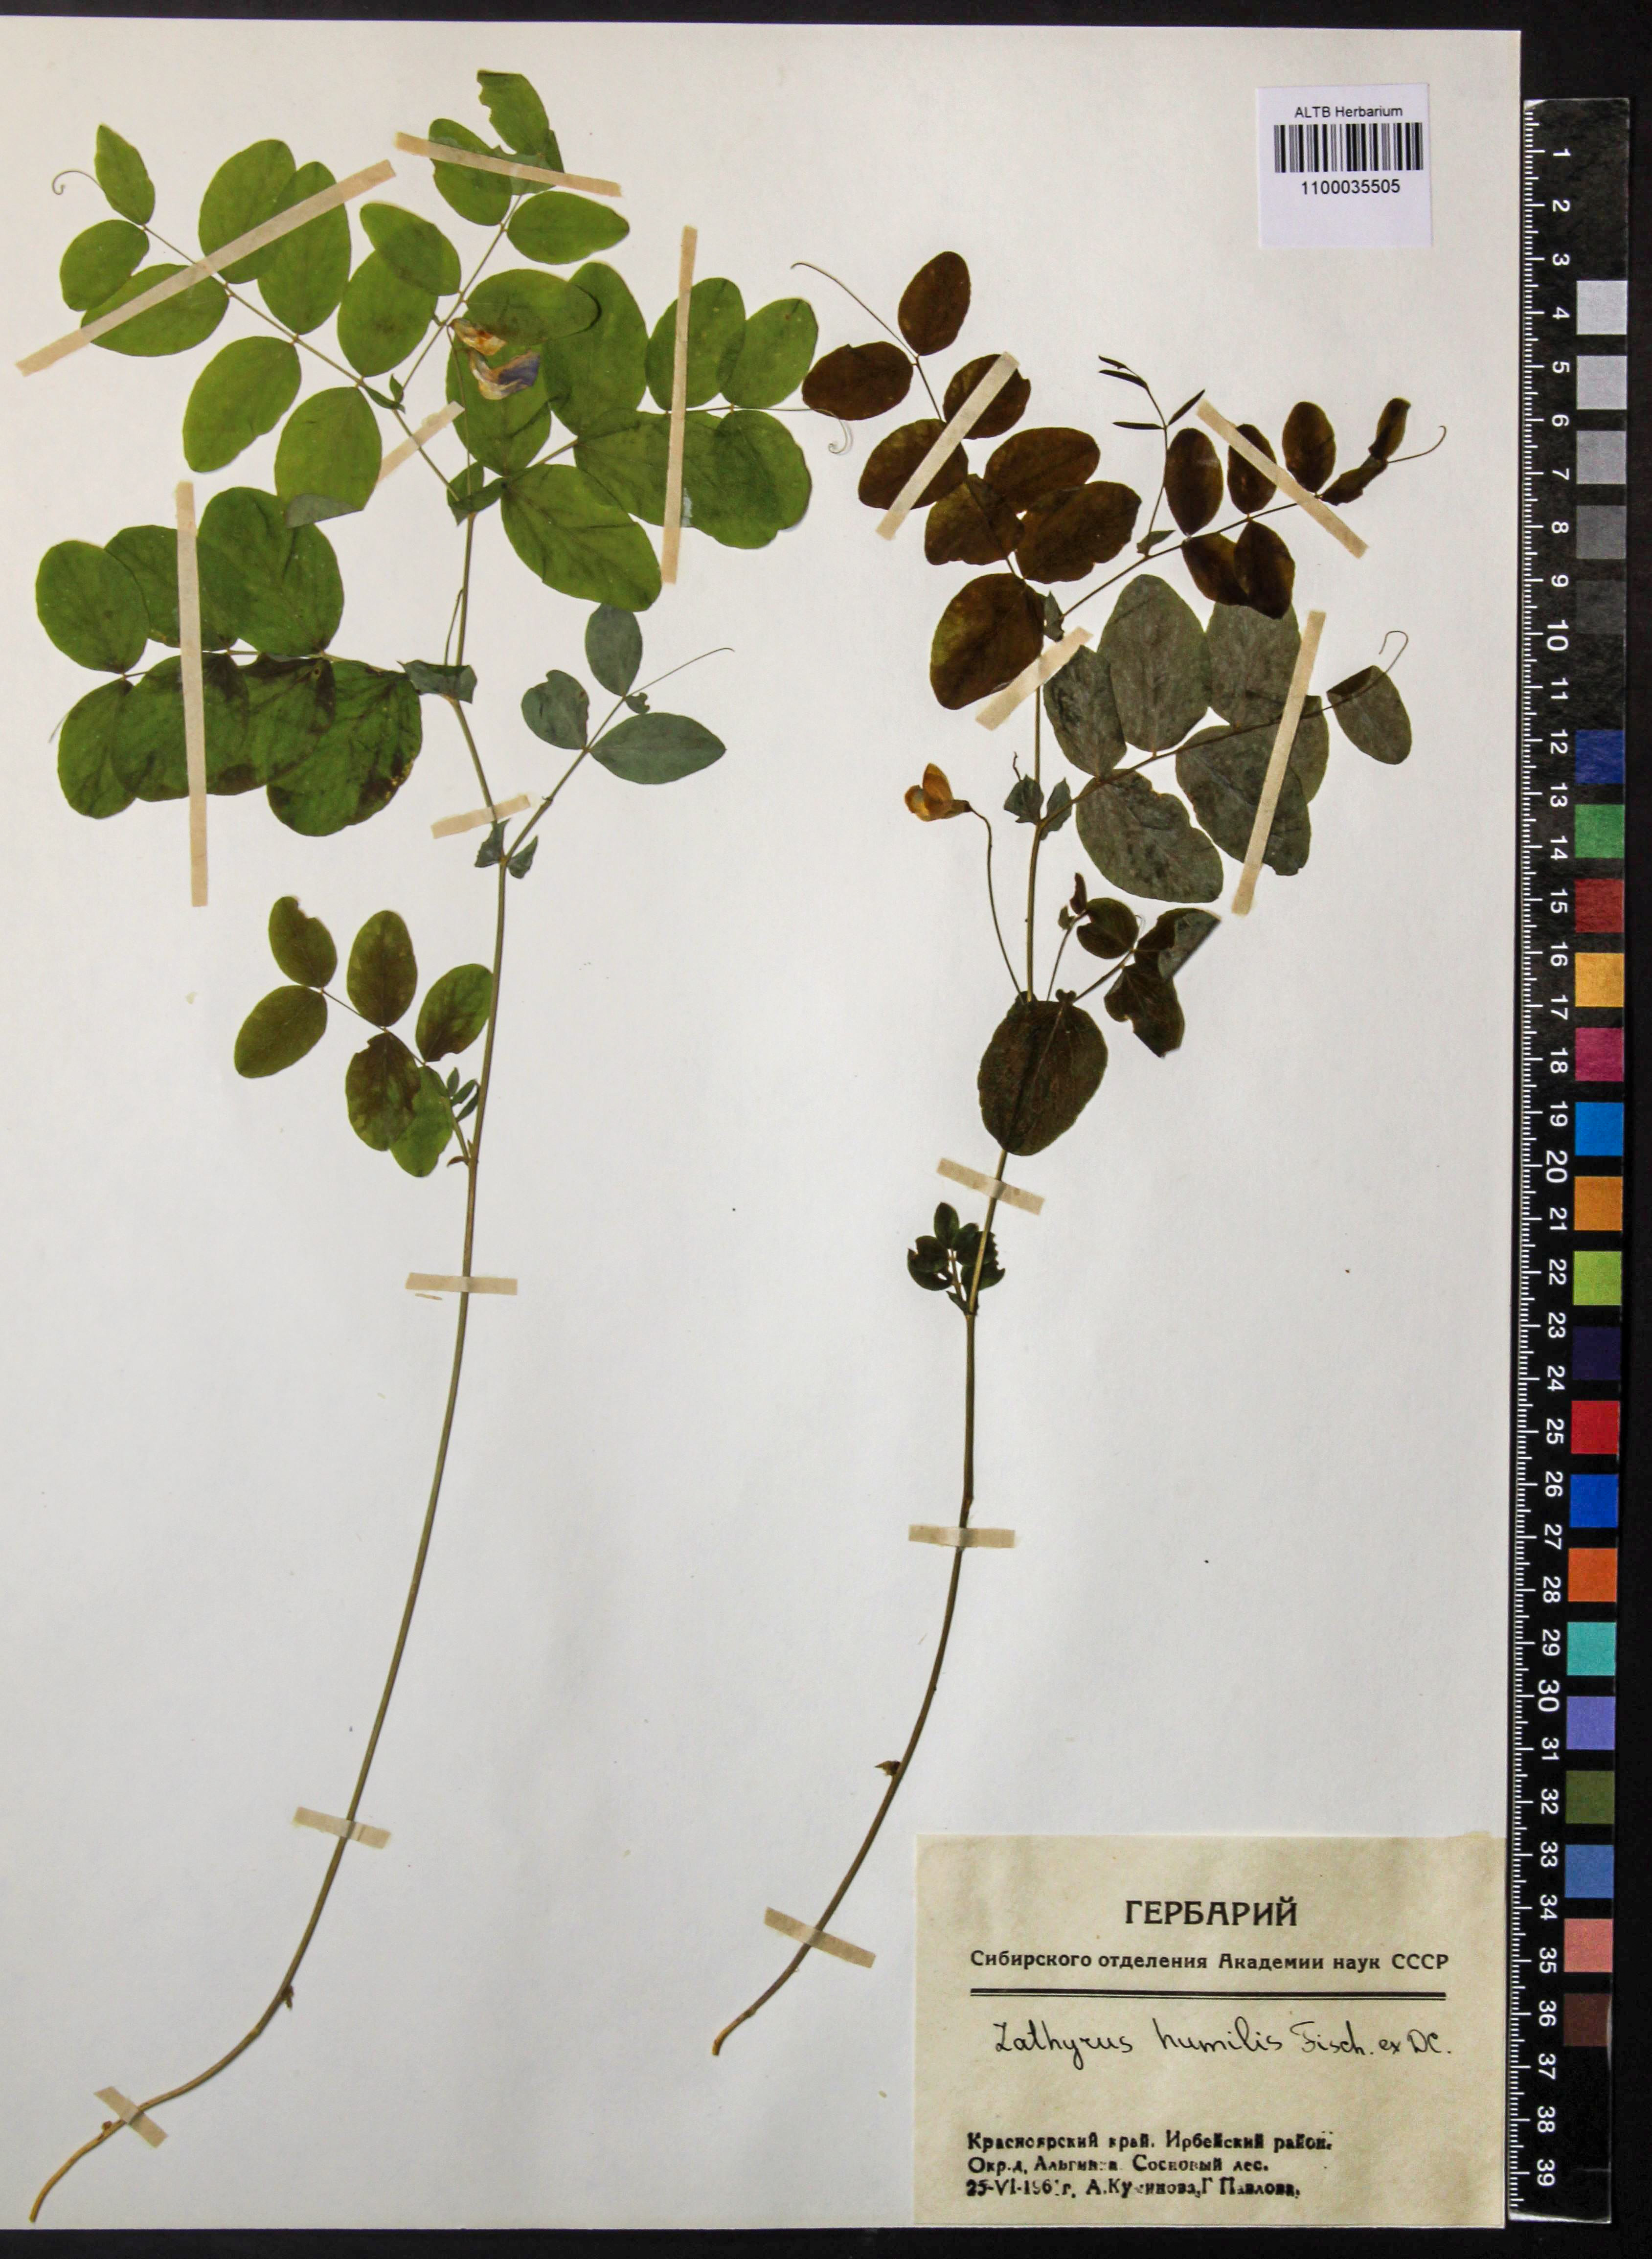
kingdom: Plantae
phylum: Tracheophyta
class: Magnoliopsida
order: Fabales
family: Fabaceae
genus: Lathyrus
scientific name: Lathyrus humilis
